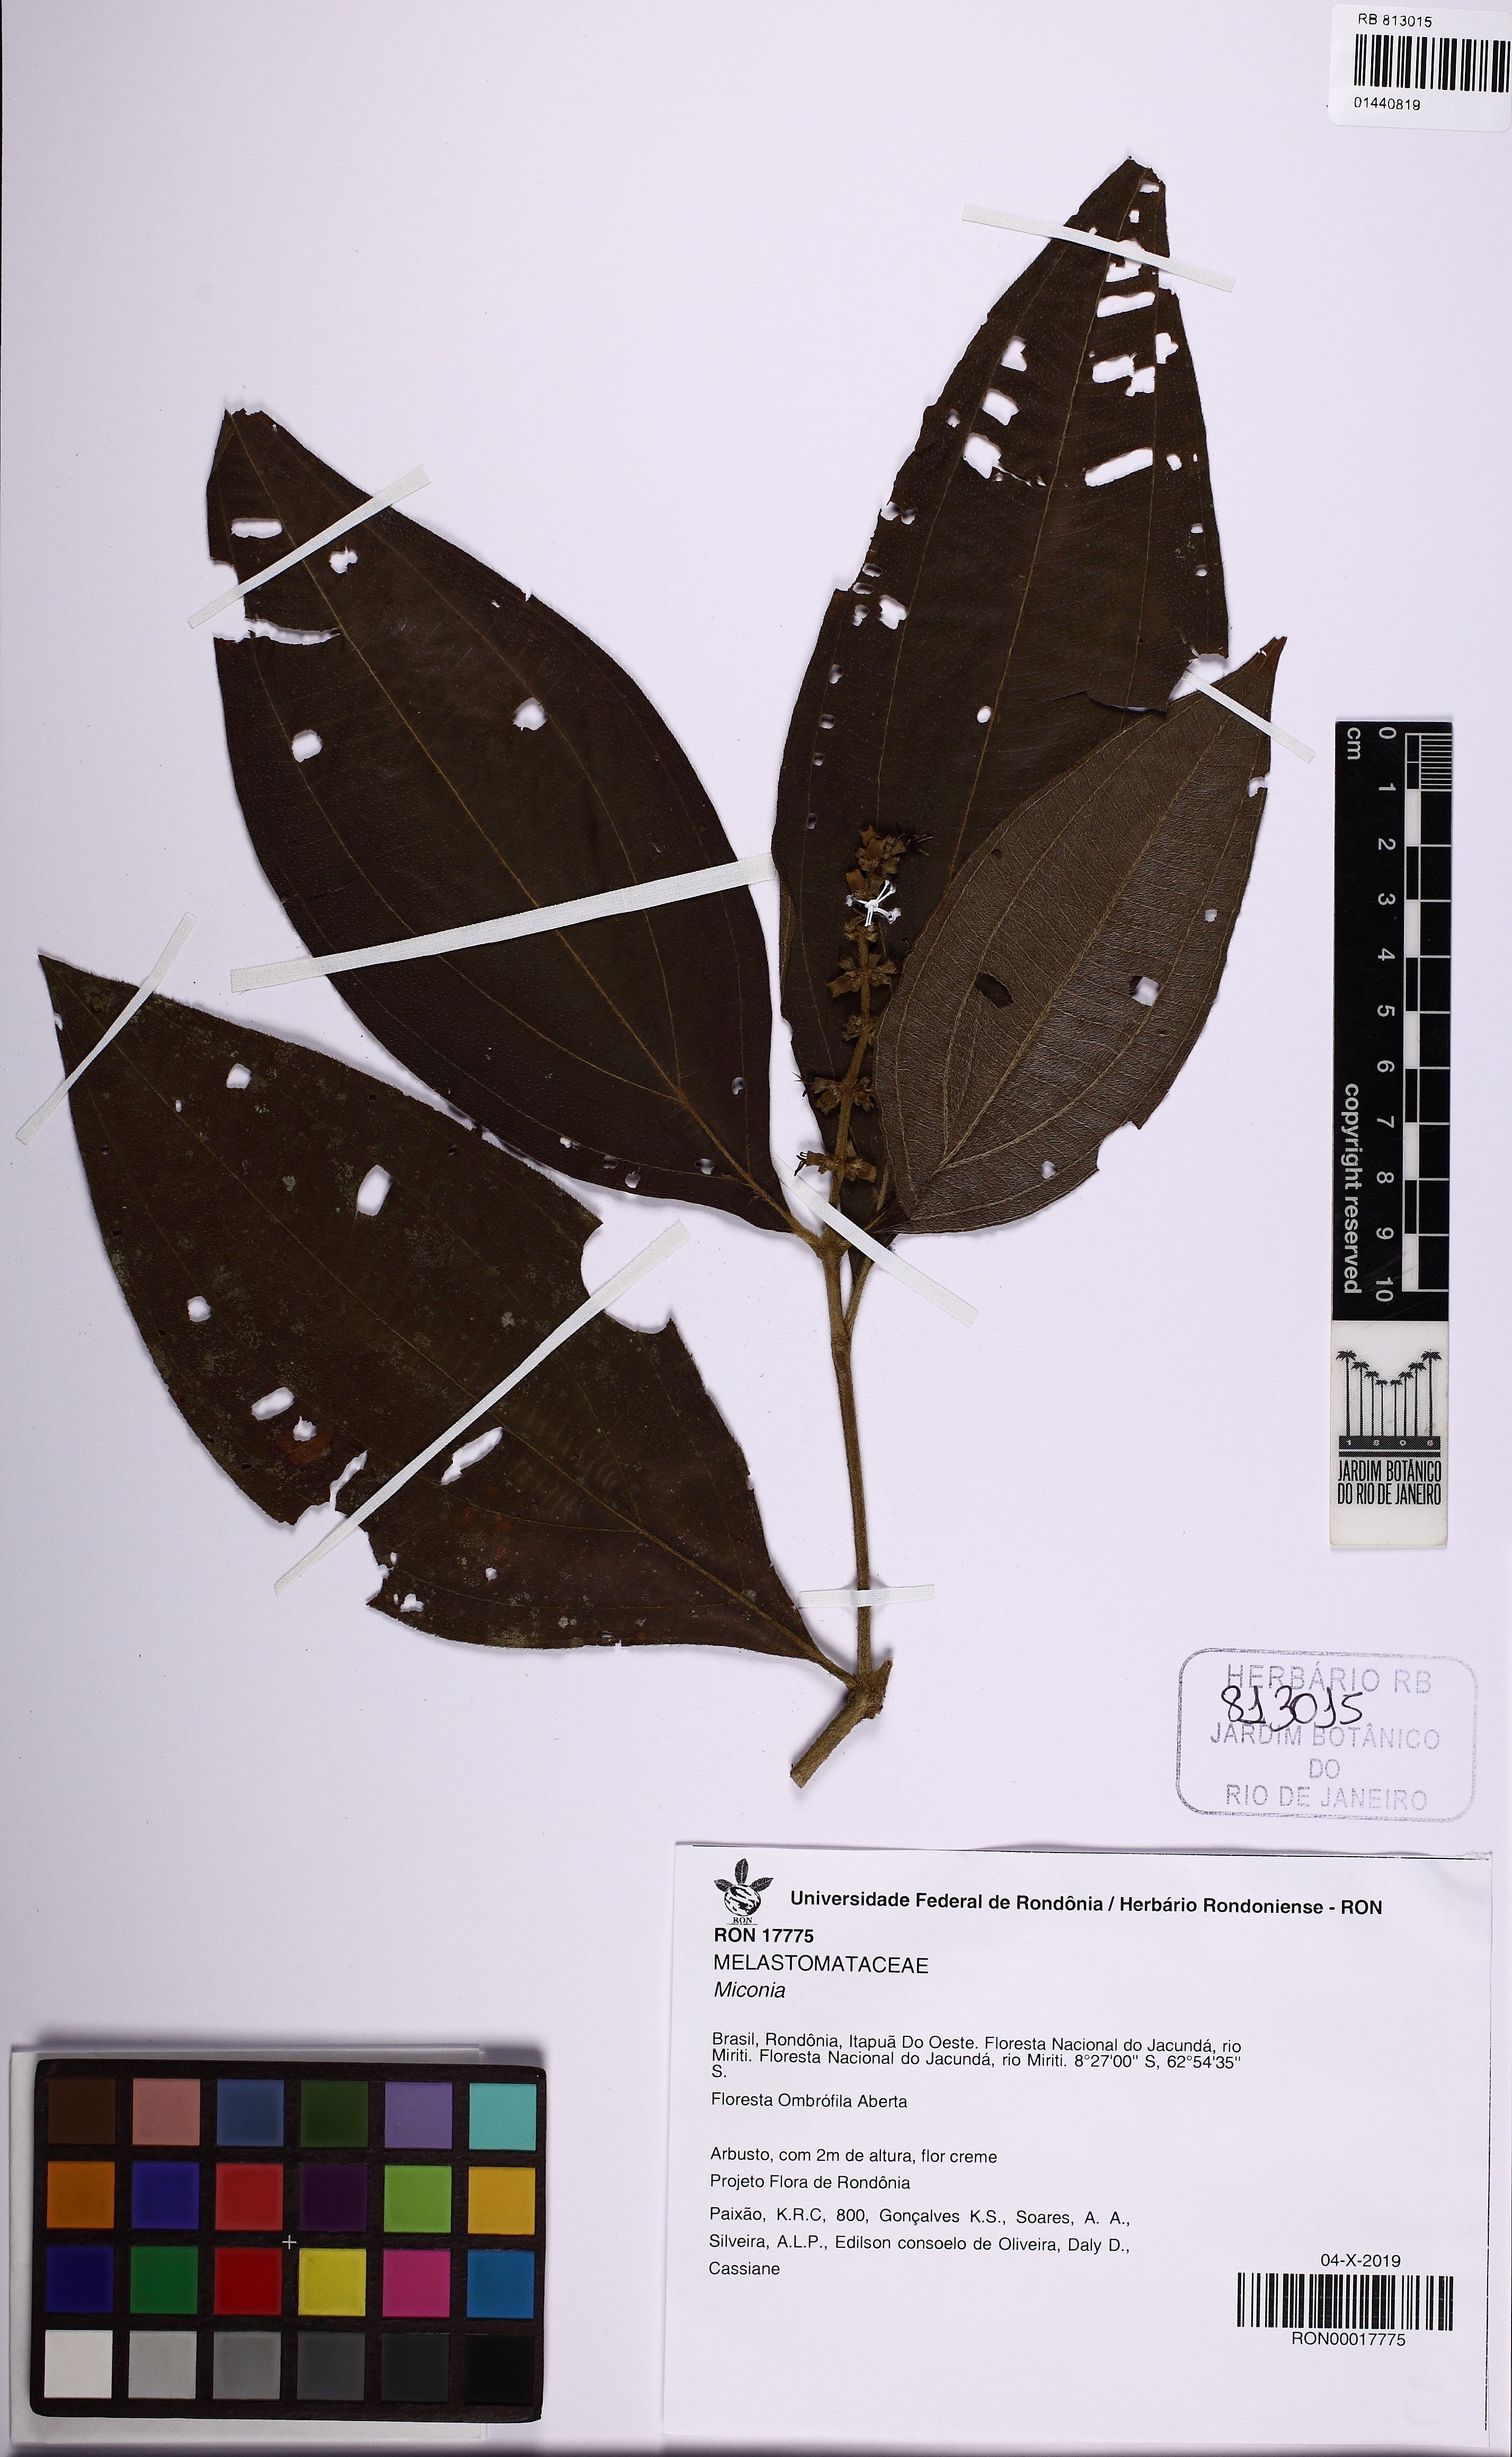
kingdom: Plantae
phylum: Tracheophyta
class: Magnoliopsida
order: Myrtales
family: Melastomataceae
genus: Miconia
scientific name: Miconia
